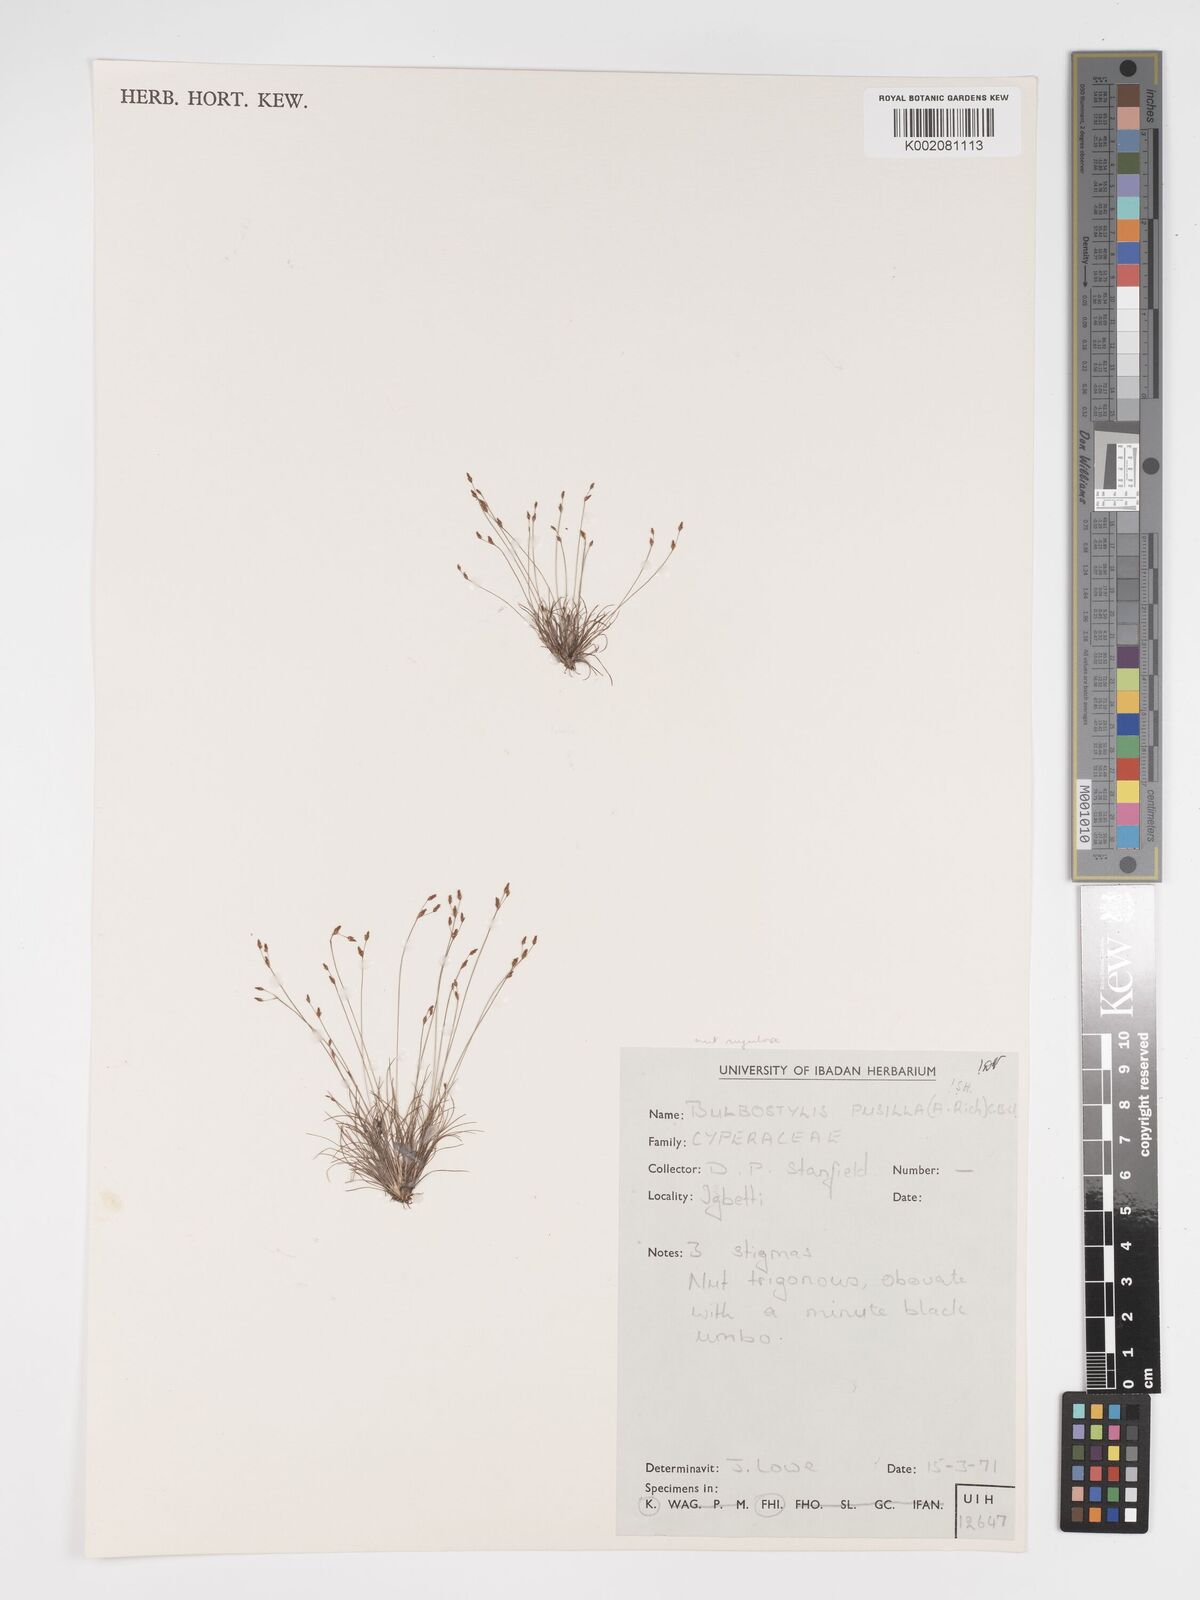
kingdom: Plantae
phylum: Tracheophyta
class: Liliopsida
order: Poales
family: Cyperaceae
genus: Bulbostylis
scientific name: Bulbostylis pusilla
